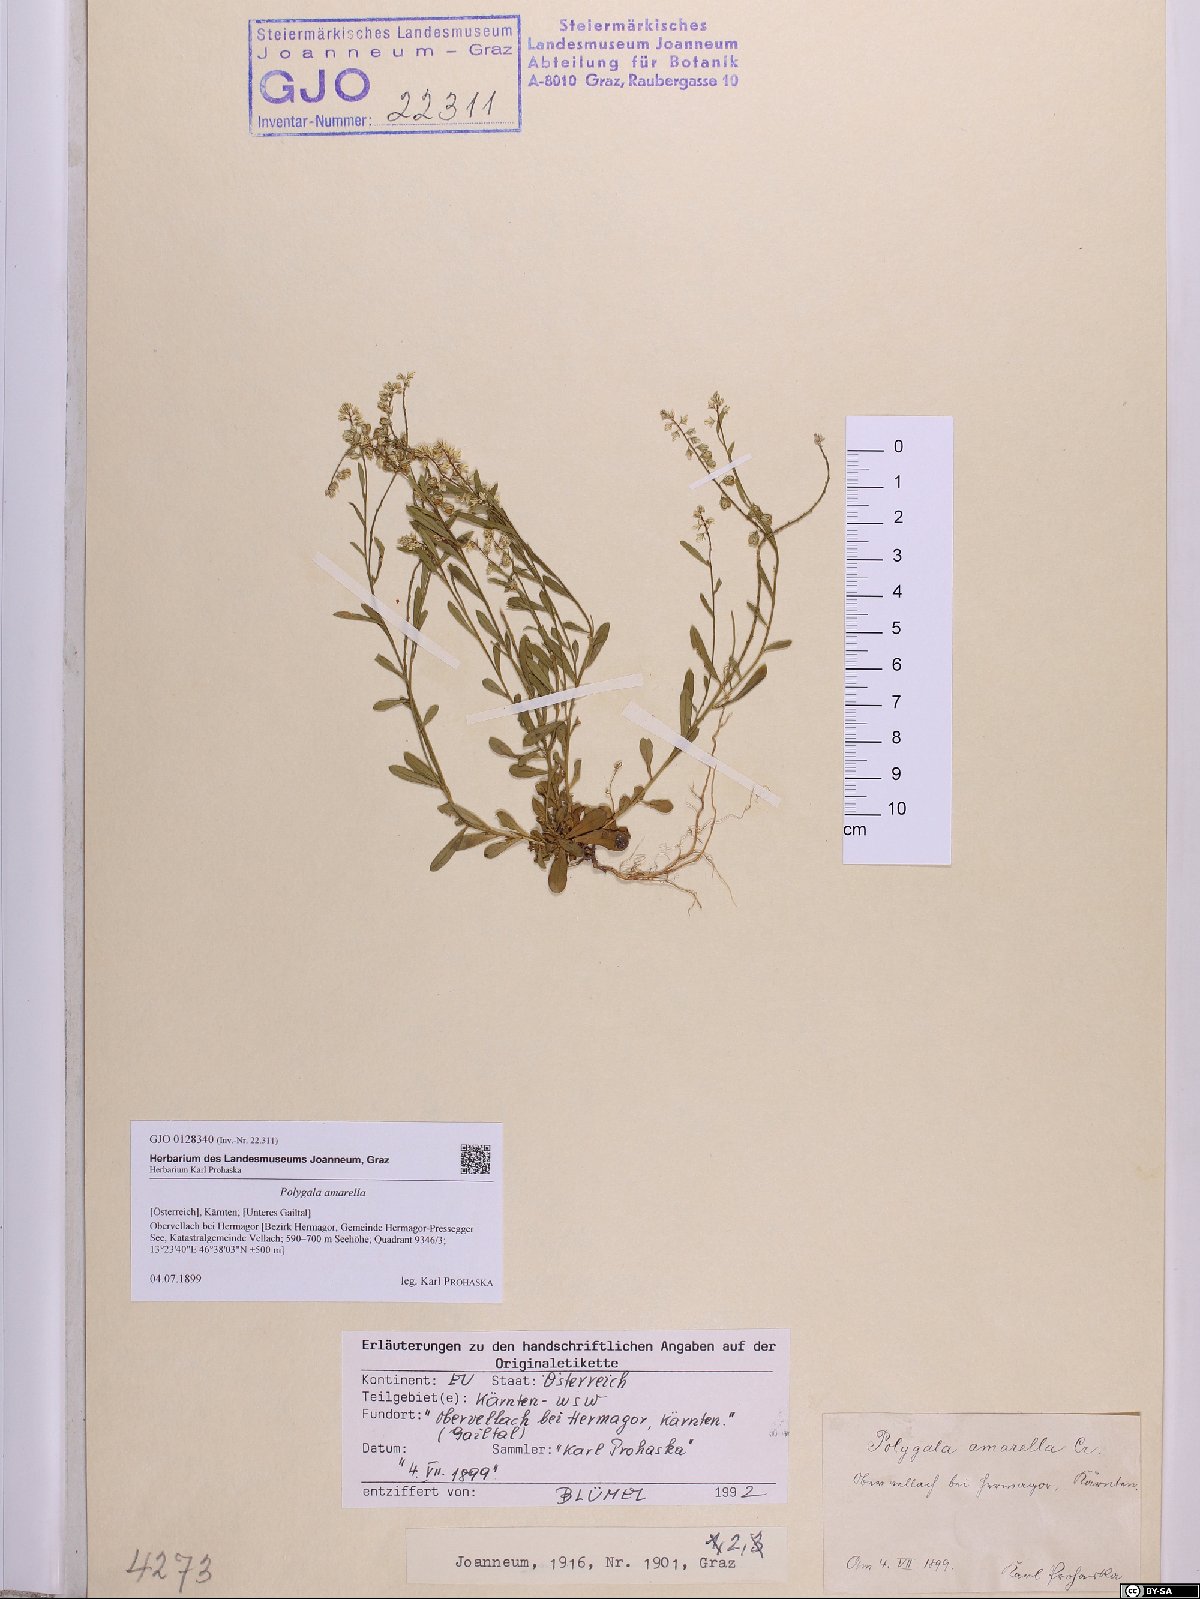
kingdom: Plantae
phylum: Tracheophyta
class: Magnoliopsida
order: Fabales
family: Polygalaceae
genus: Polygala
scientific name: Polygala amarella
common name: Dwarf milkwort
